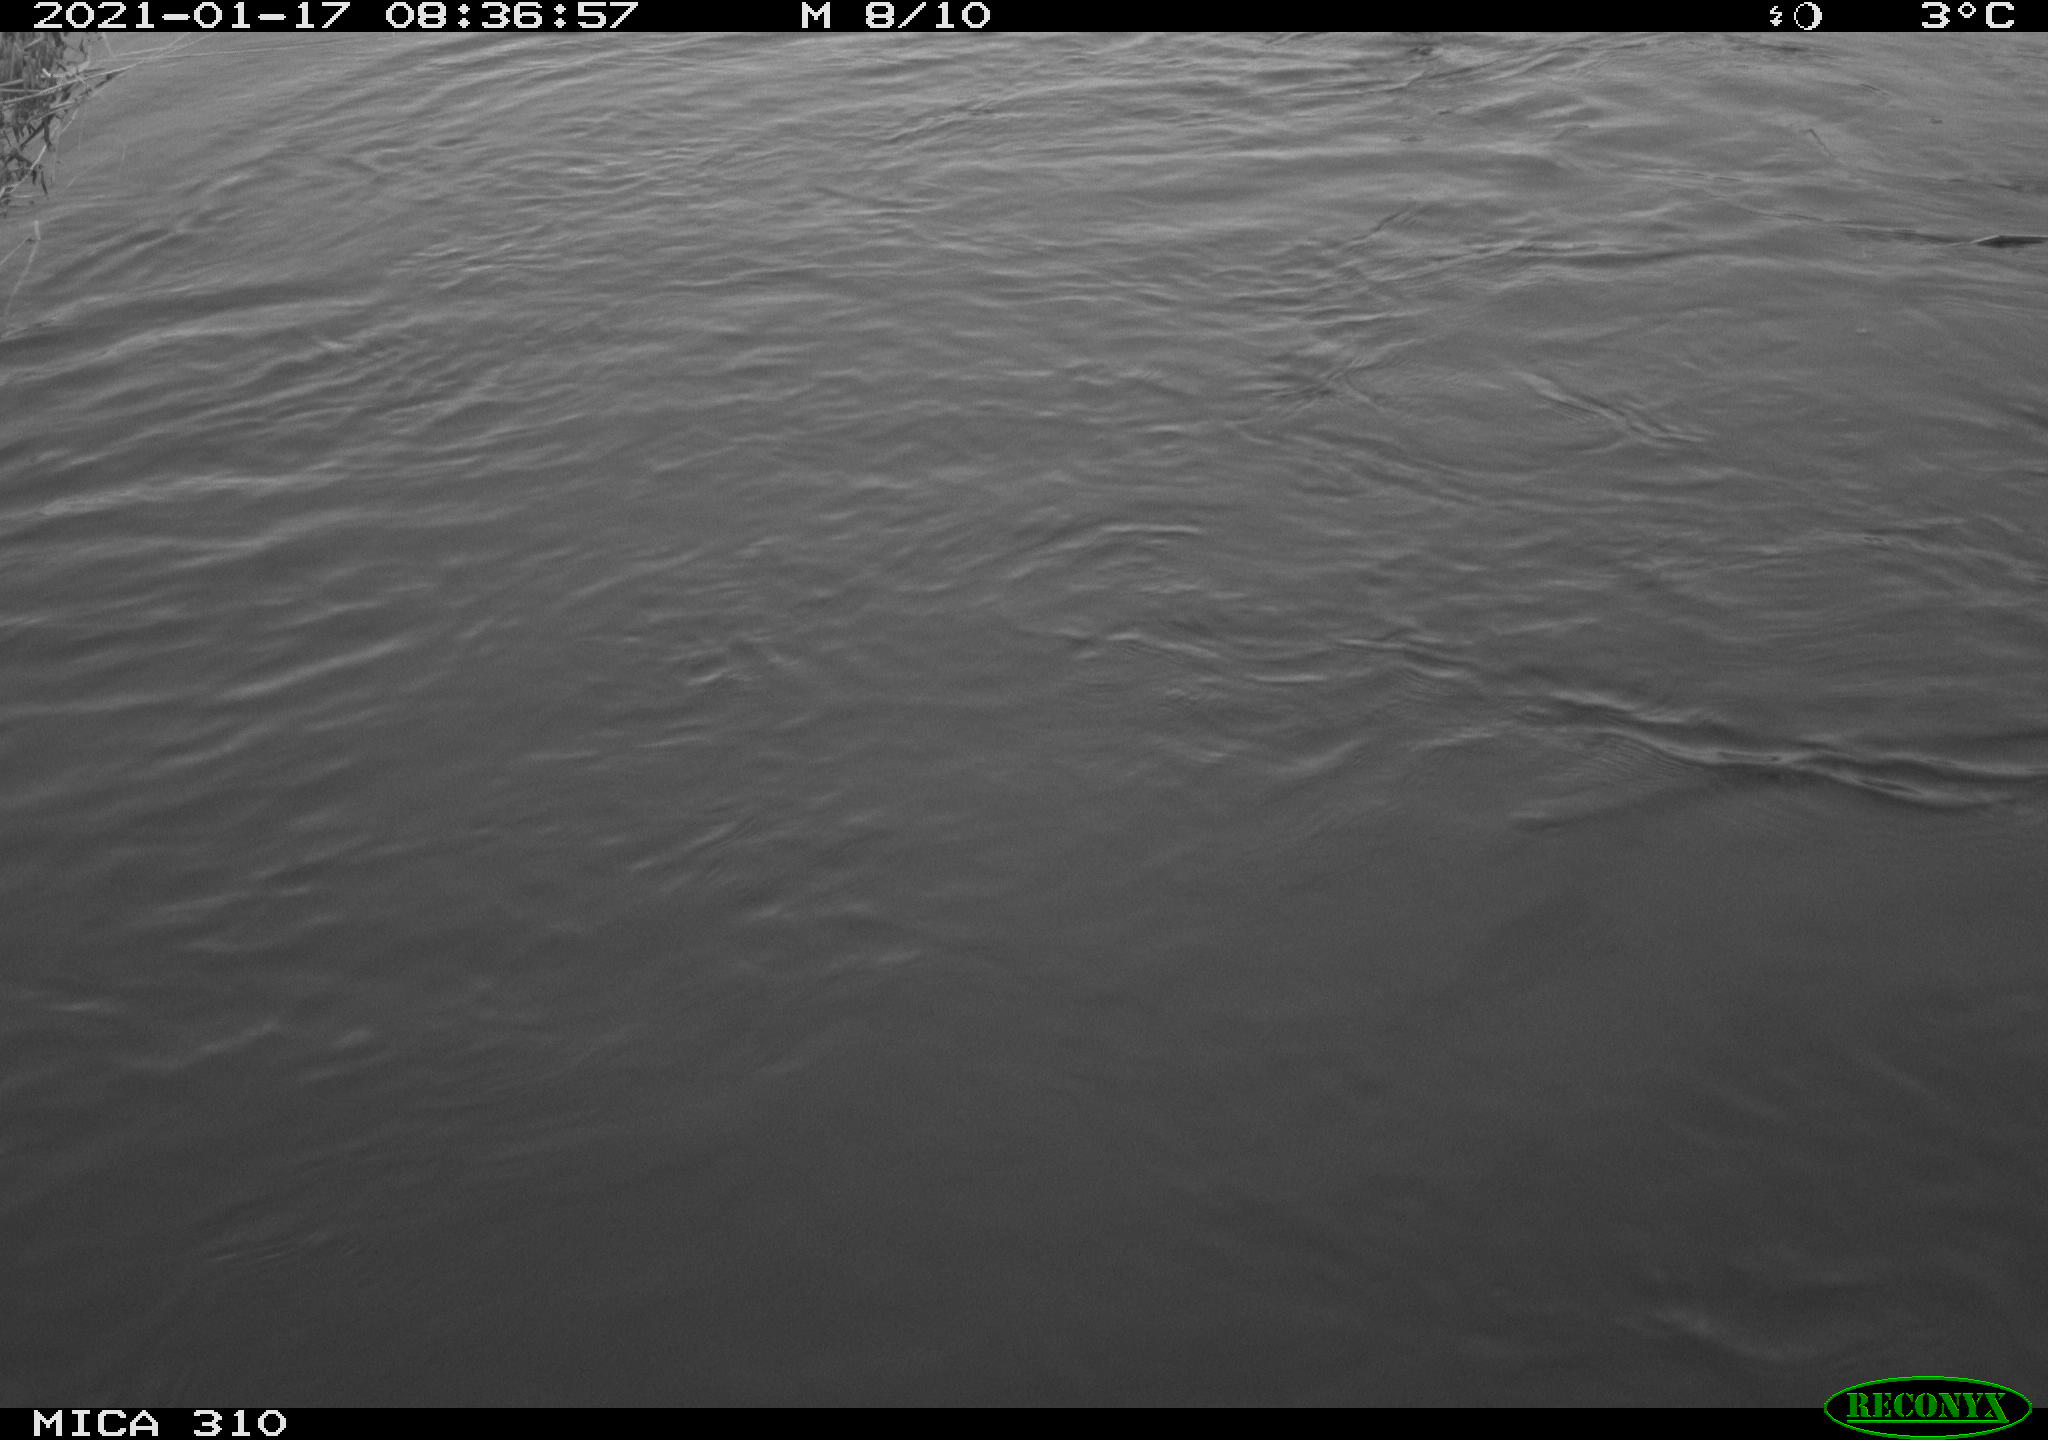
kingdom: Animalia
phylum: Chordata
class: Aves
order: Suliformes
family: Phalacrocoracidae
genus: Phalacrocorax
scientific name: Phalacrocorax carbo
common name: Great cormorant
